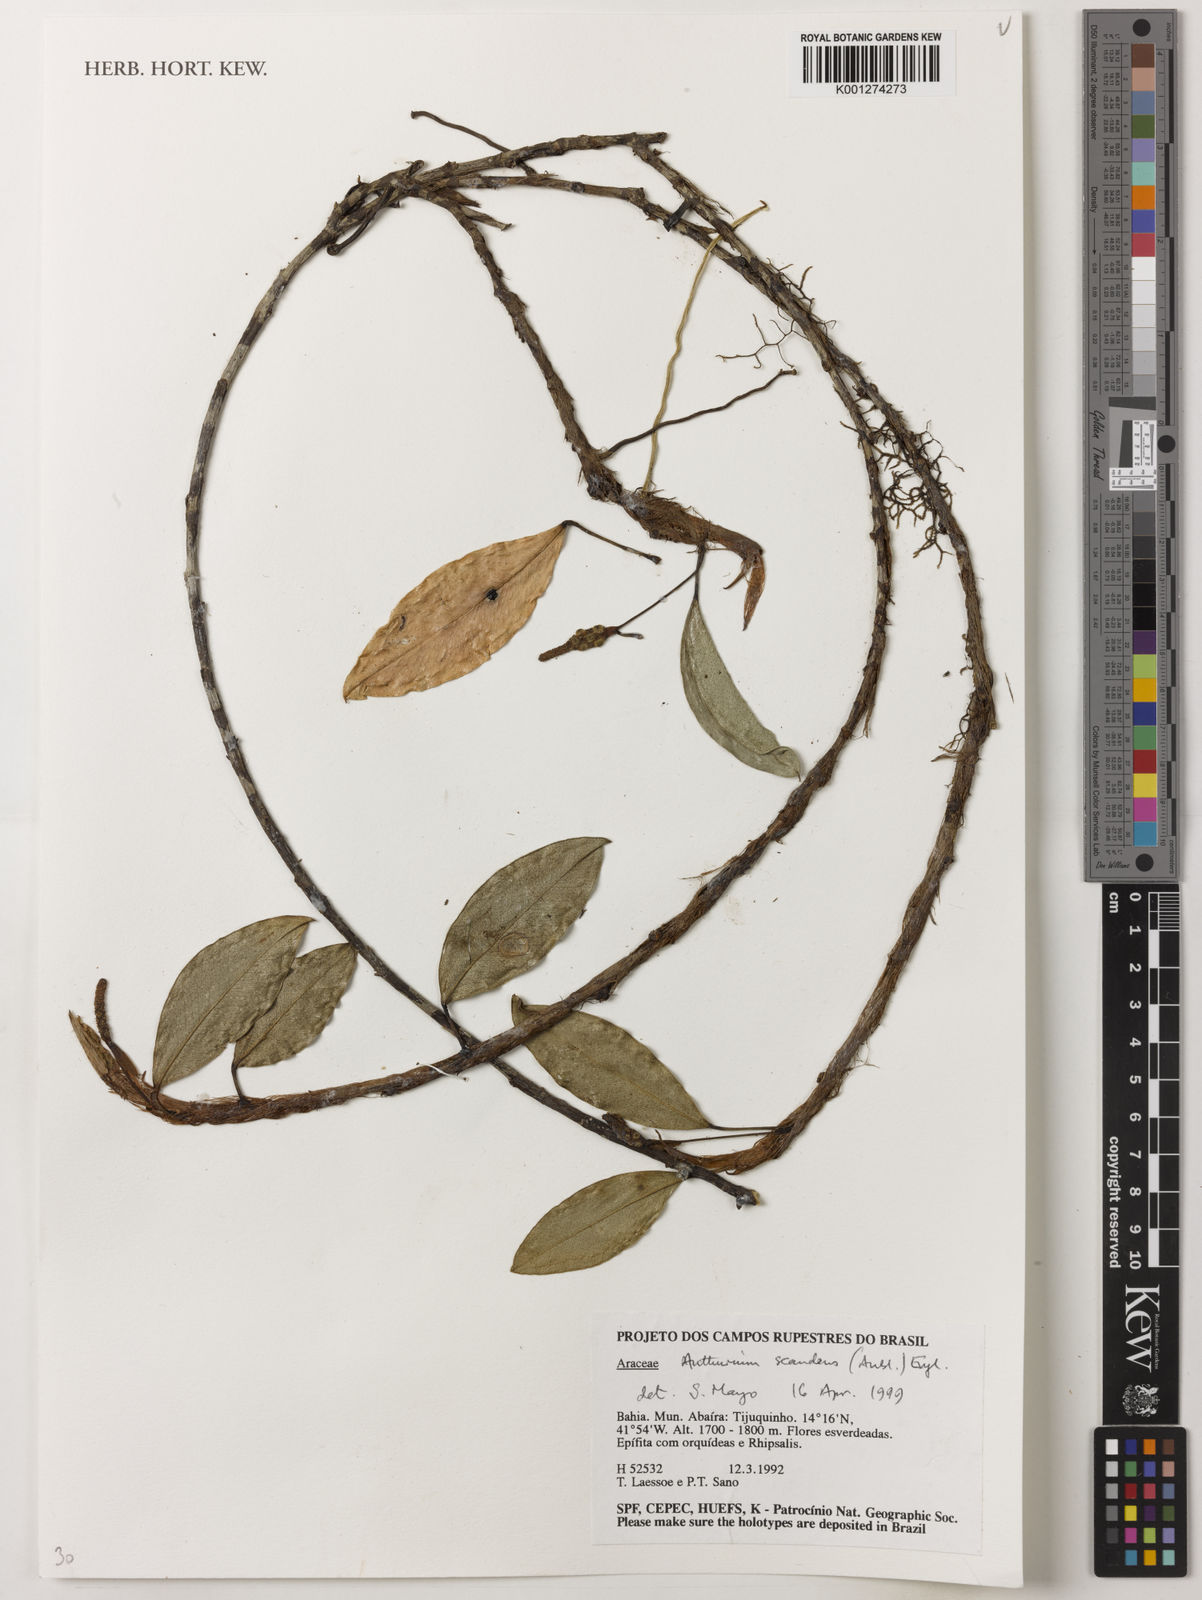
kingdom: Plantae
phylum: Tracheophyta
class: Liliopsida
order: Alismatales
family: Araceae
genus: Anthurium
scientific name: Anthurium scandens
